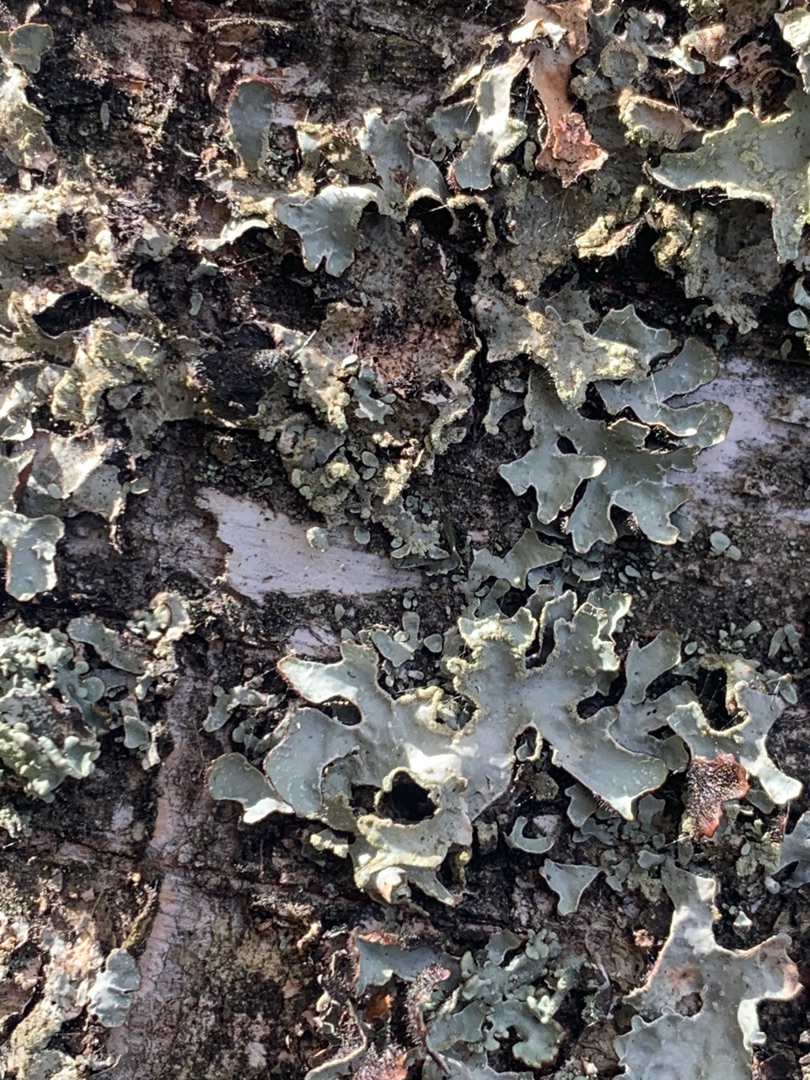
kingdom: Fungi
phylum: Ascomycota
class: Lecanoromycetes
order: Lecanorales
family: Parmeliaceae
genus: Parmelia
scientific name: Parmelia sulcata
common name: Rynket skållav
